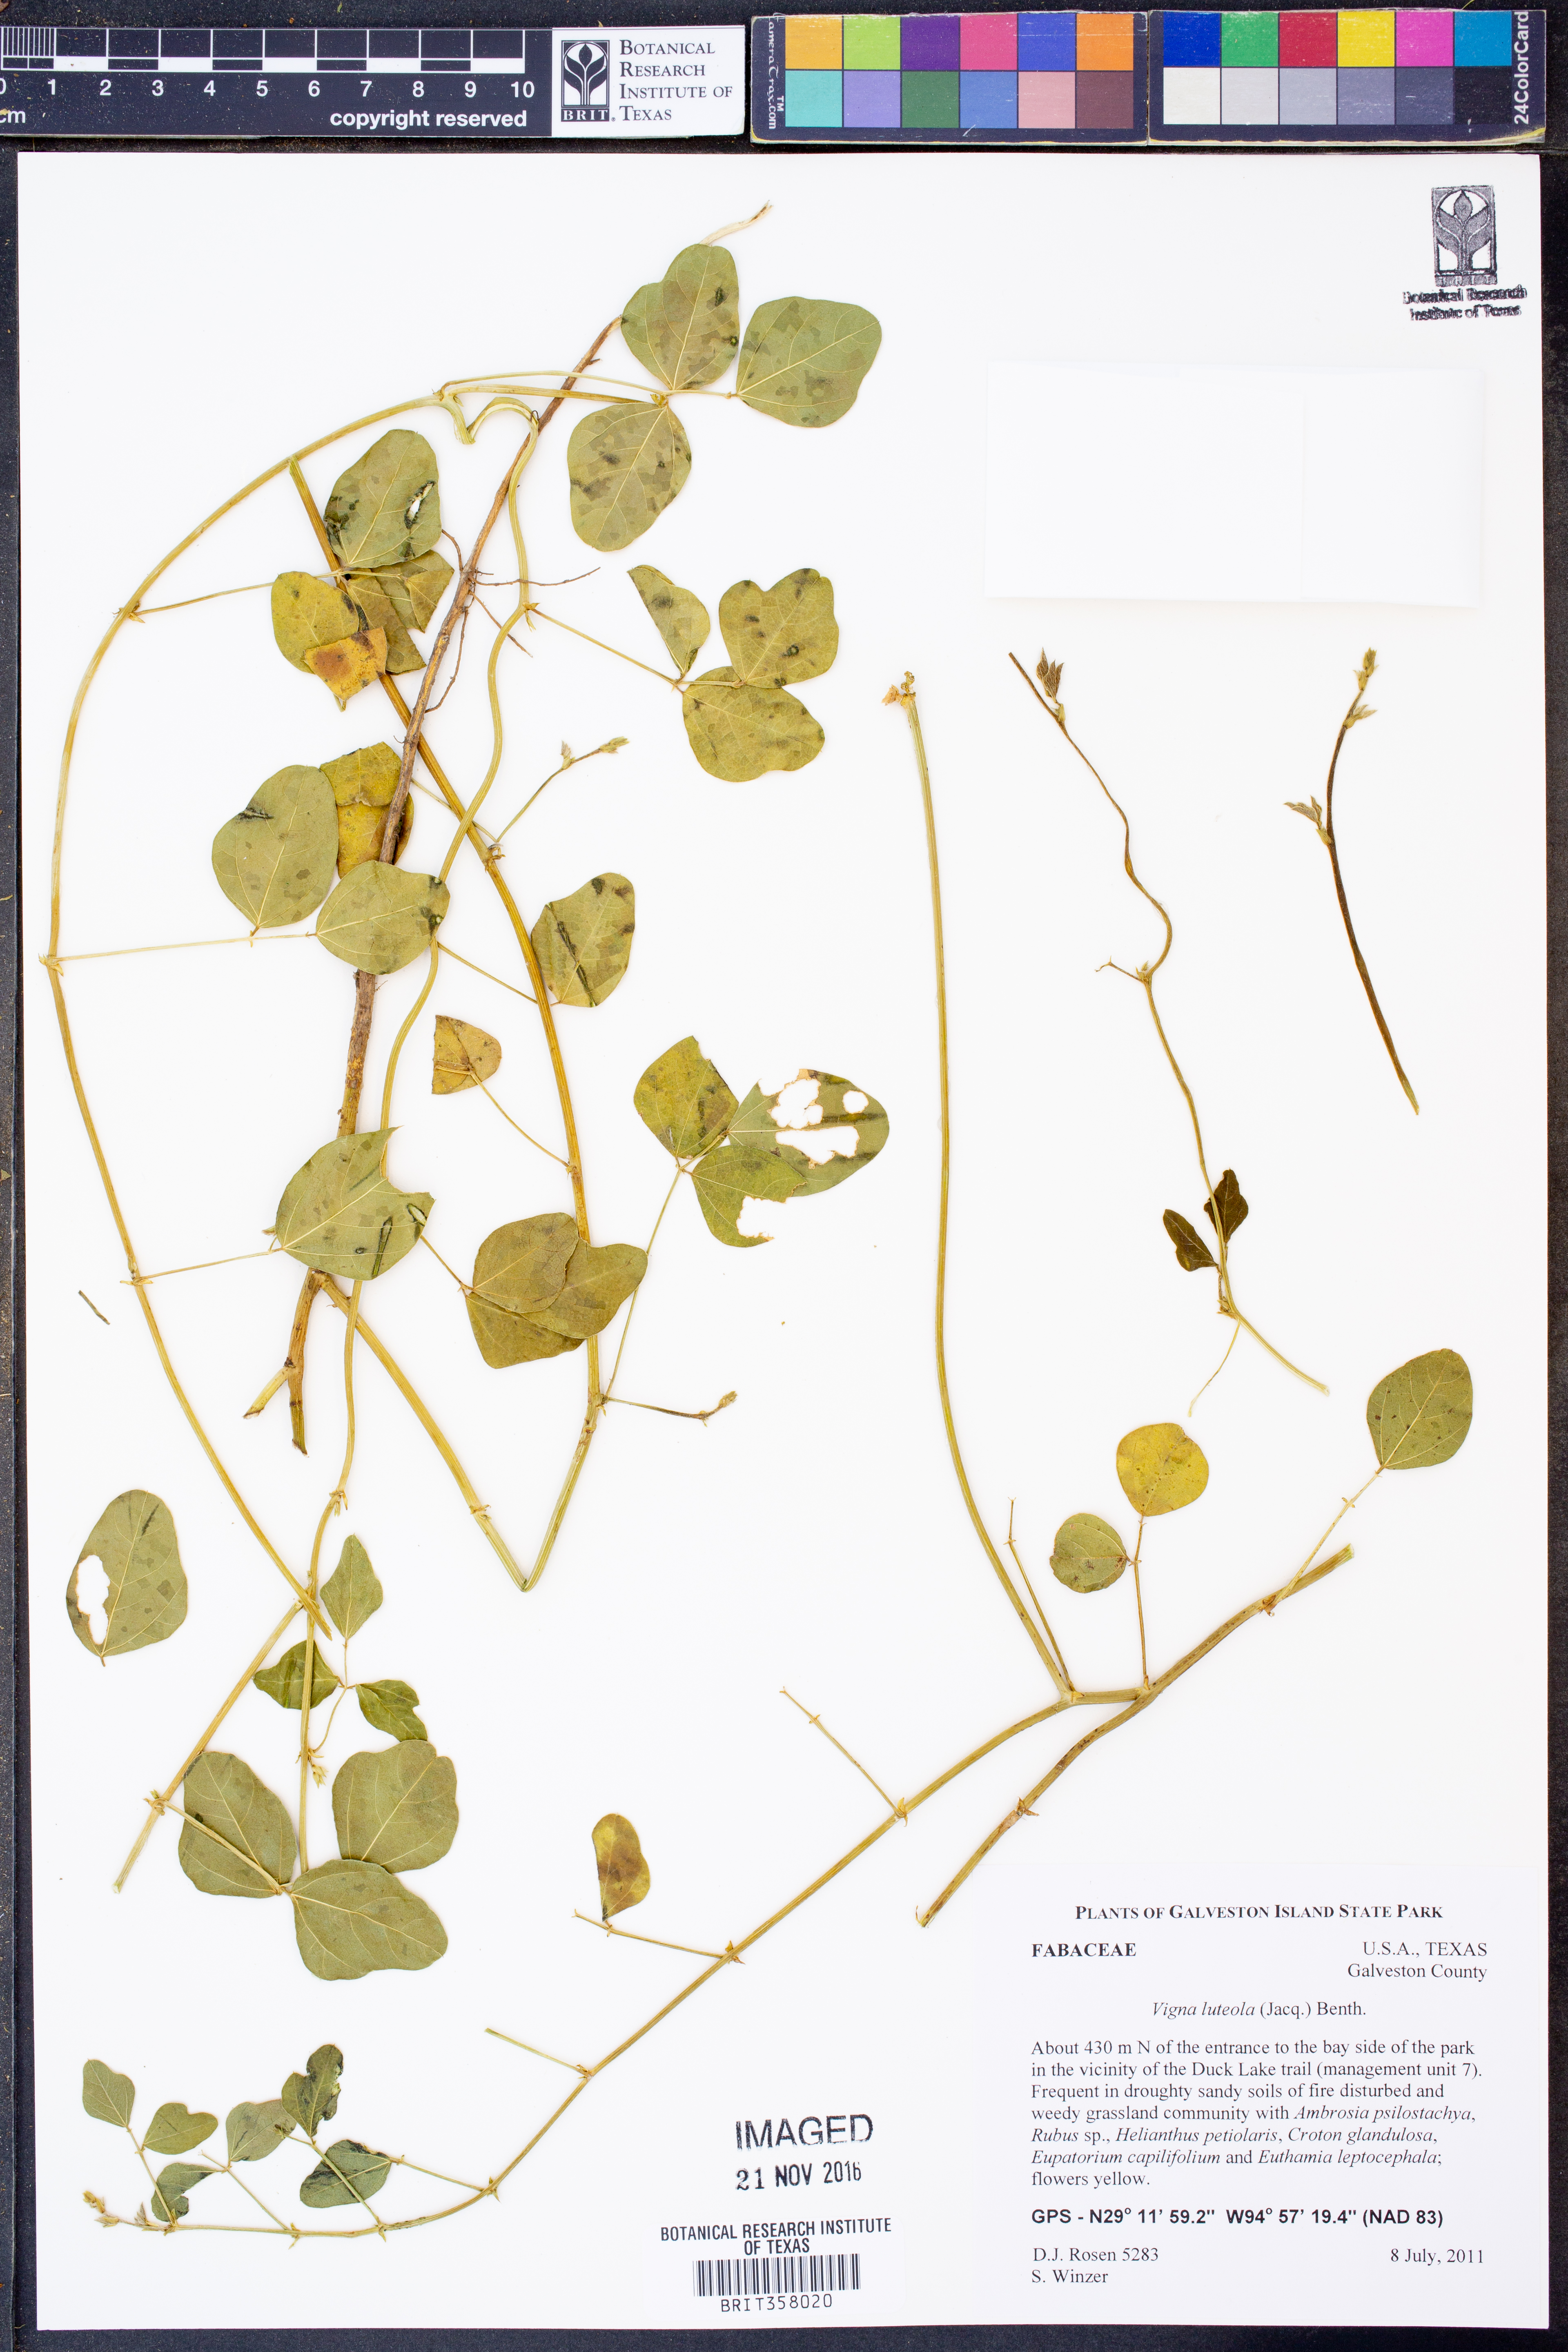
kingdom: Plantae
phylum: Tracheophyta
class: Magnoliopsida
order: Fabales
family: Fabaceae
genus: Vigna
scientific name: Vigna luteola
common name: Hairypod cowpea
